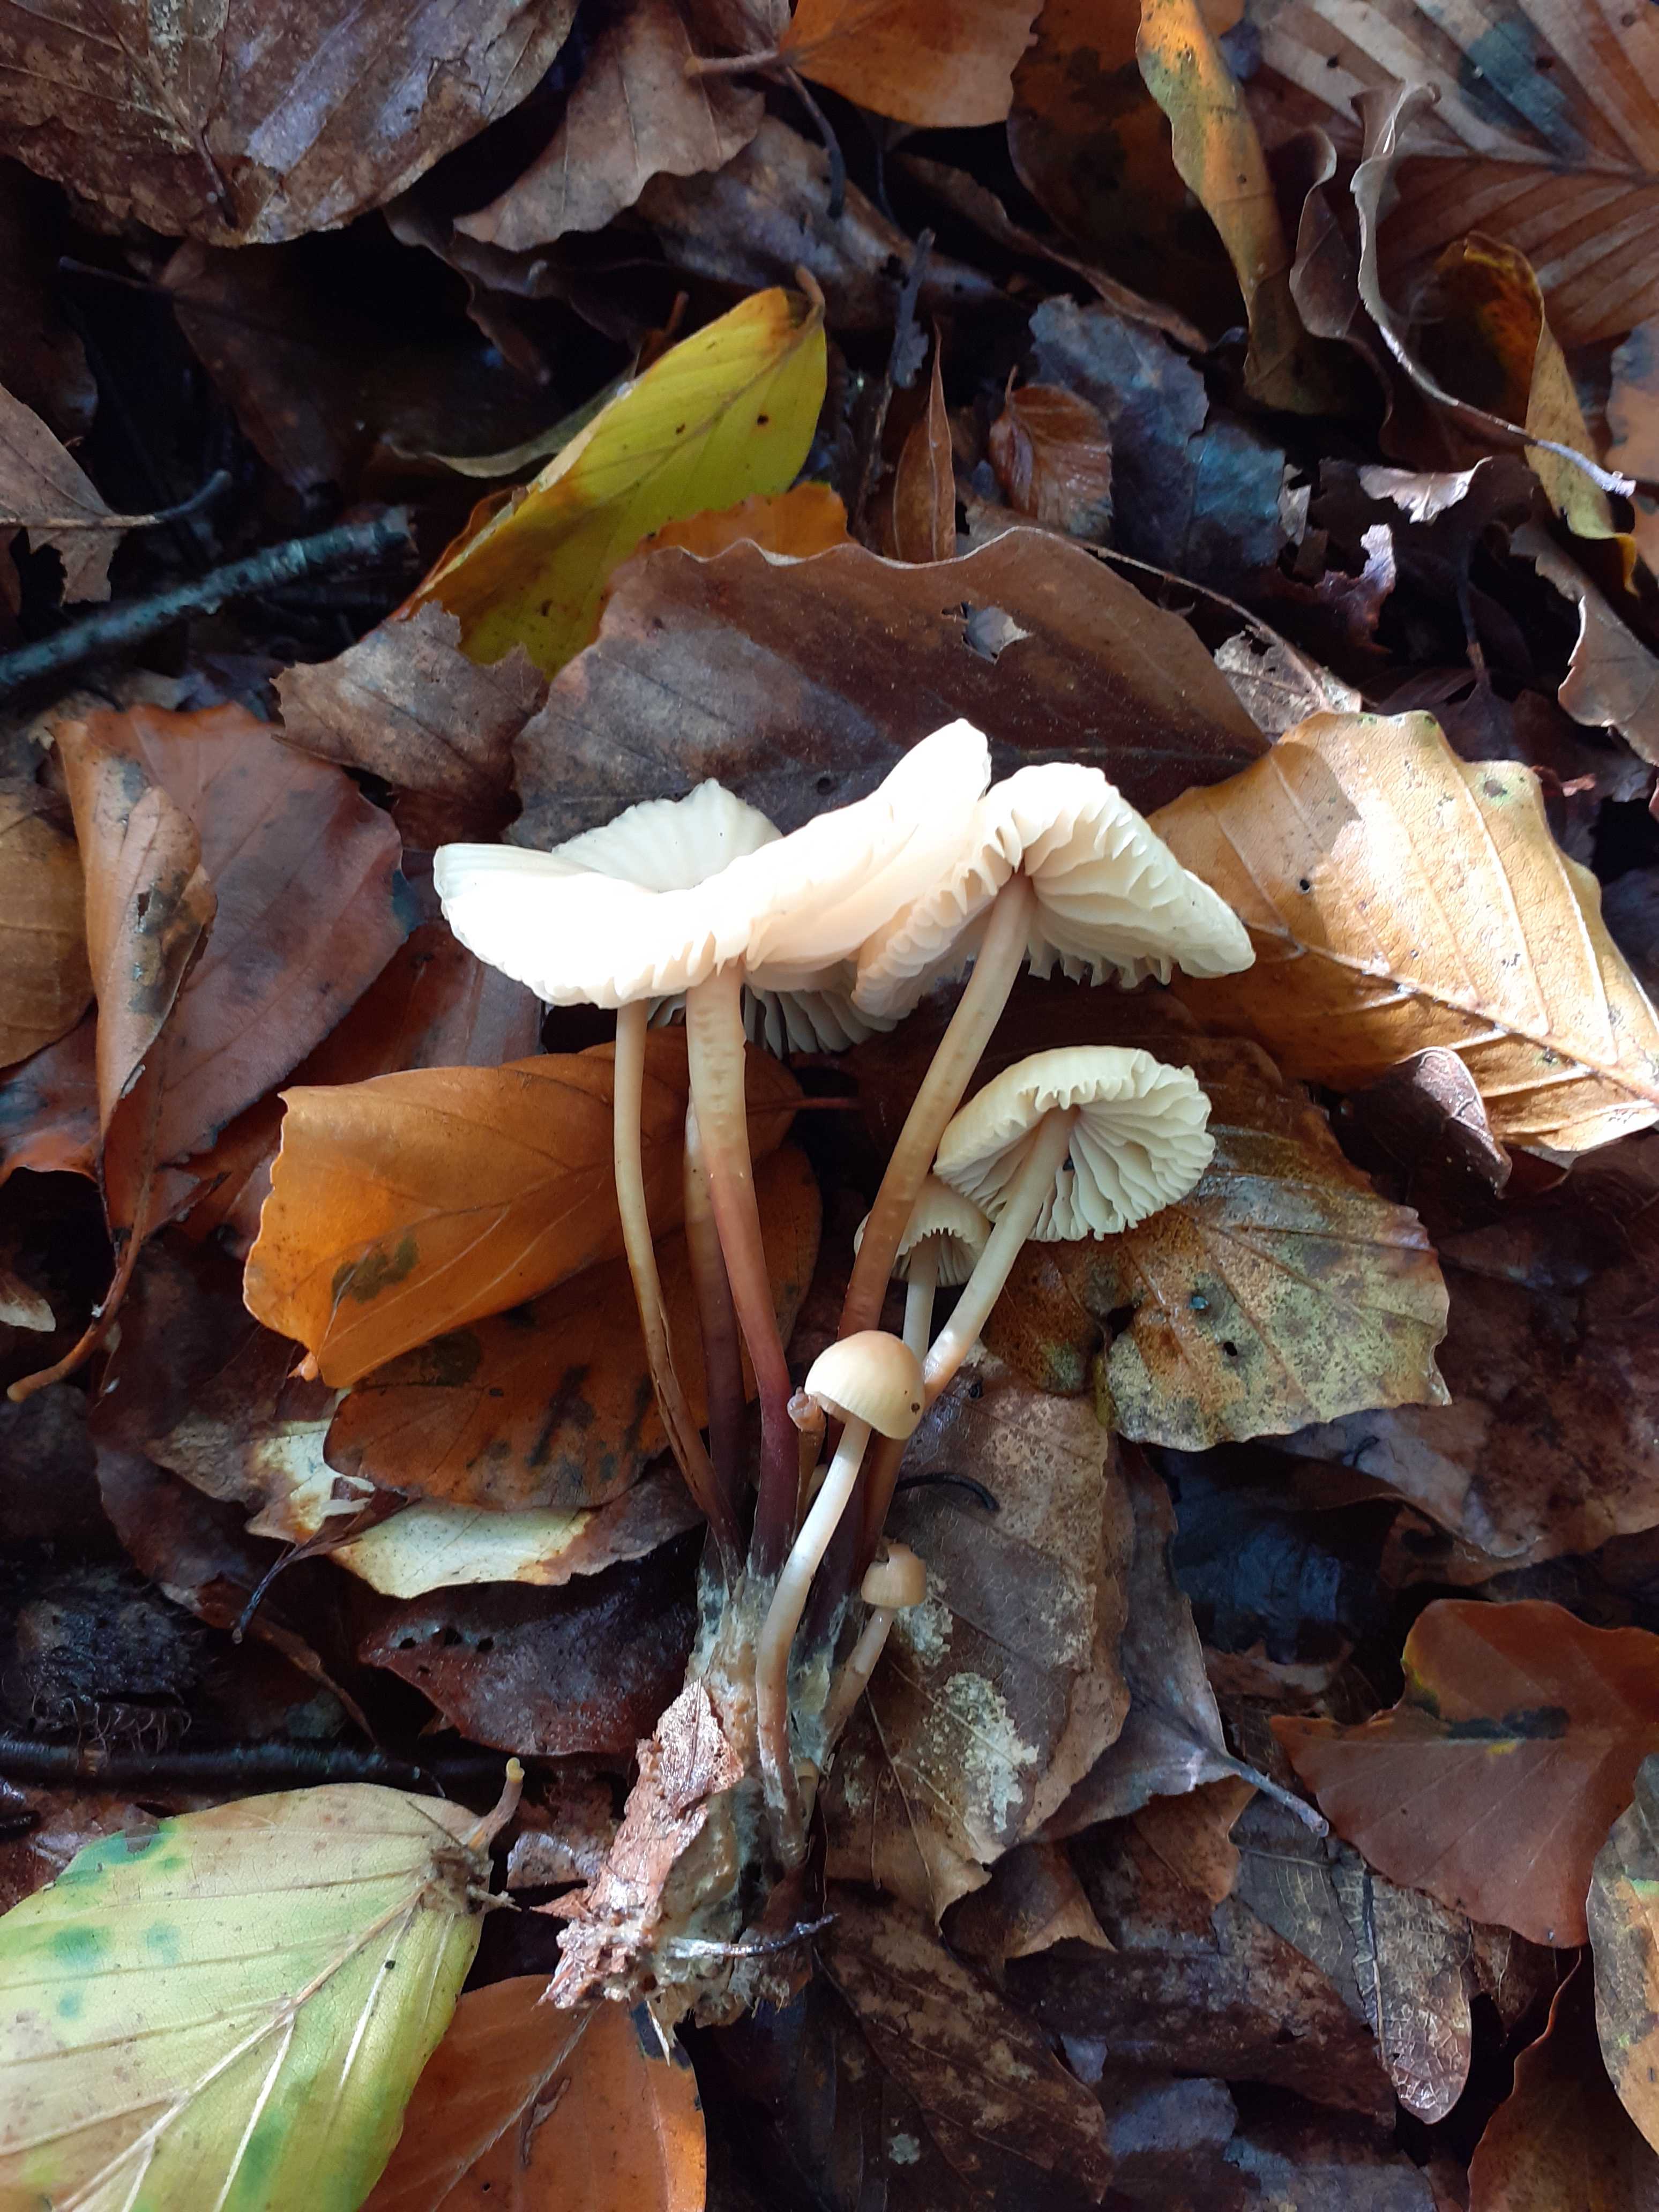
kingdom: Fungi
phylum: Basidiomycota
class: Agaricomycetes
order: Agaricales
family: Marasmiaceae
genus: Marasmius
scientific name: Marasmius torquescens
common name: filtfodet bruskhat
